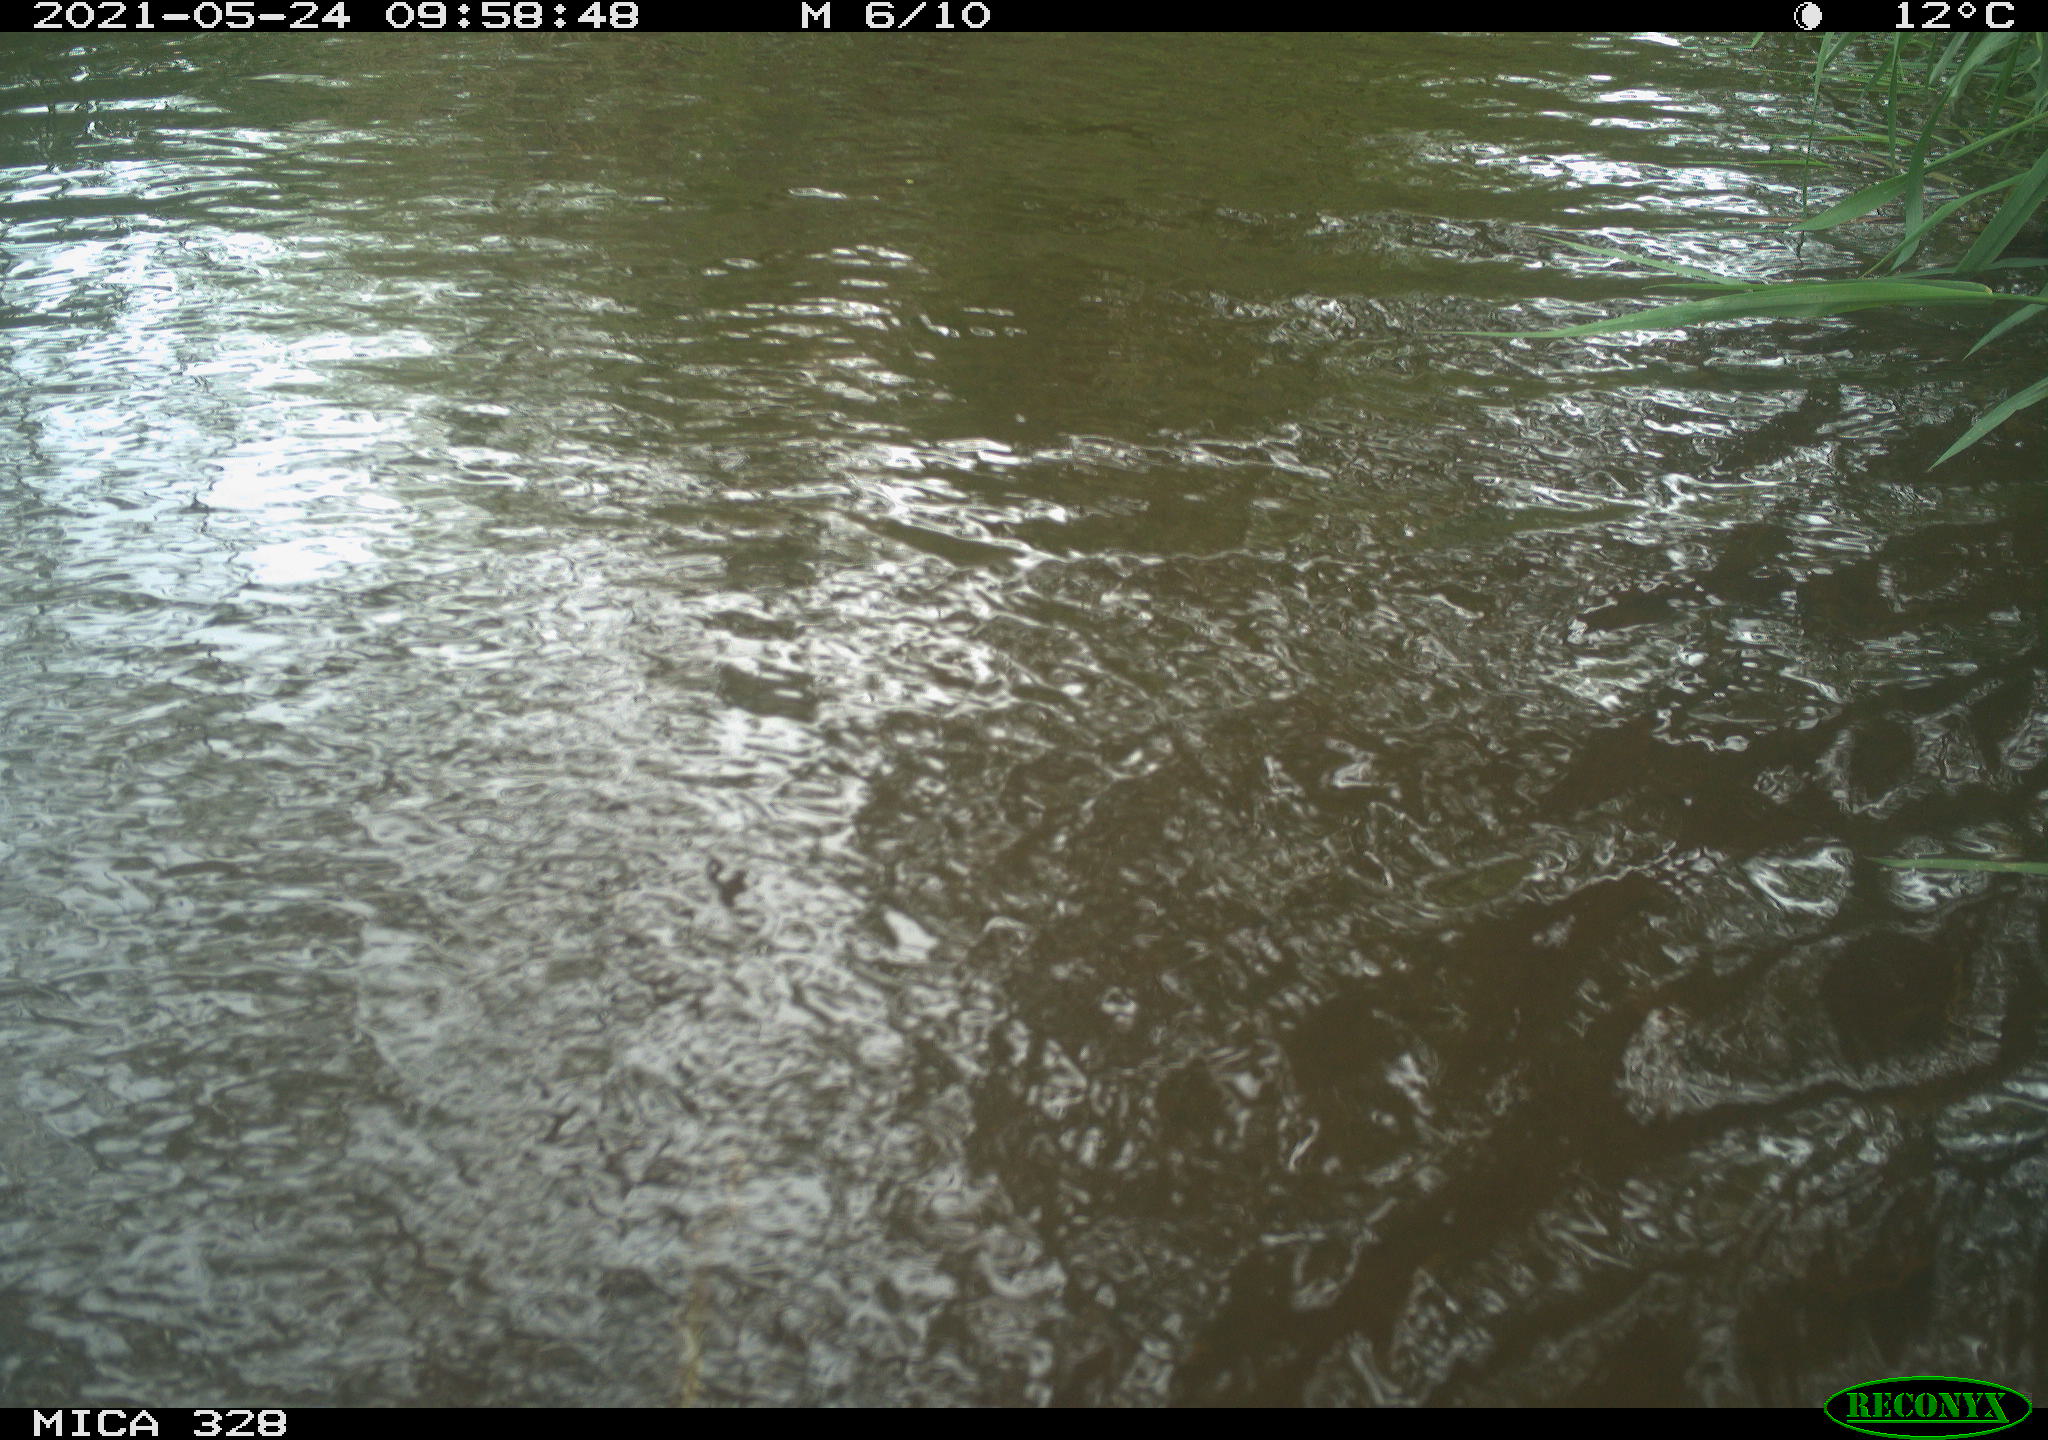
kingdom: Animalia
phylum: Chordata
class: Aves
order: Anseriformes
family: Anatidae
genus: Aix
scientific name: Aix galericulata
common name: Mandarin duck
